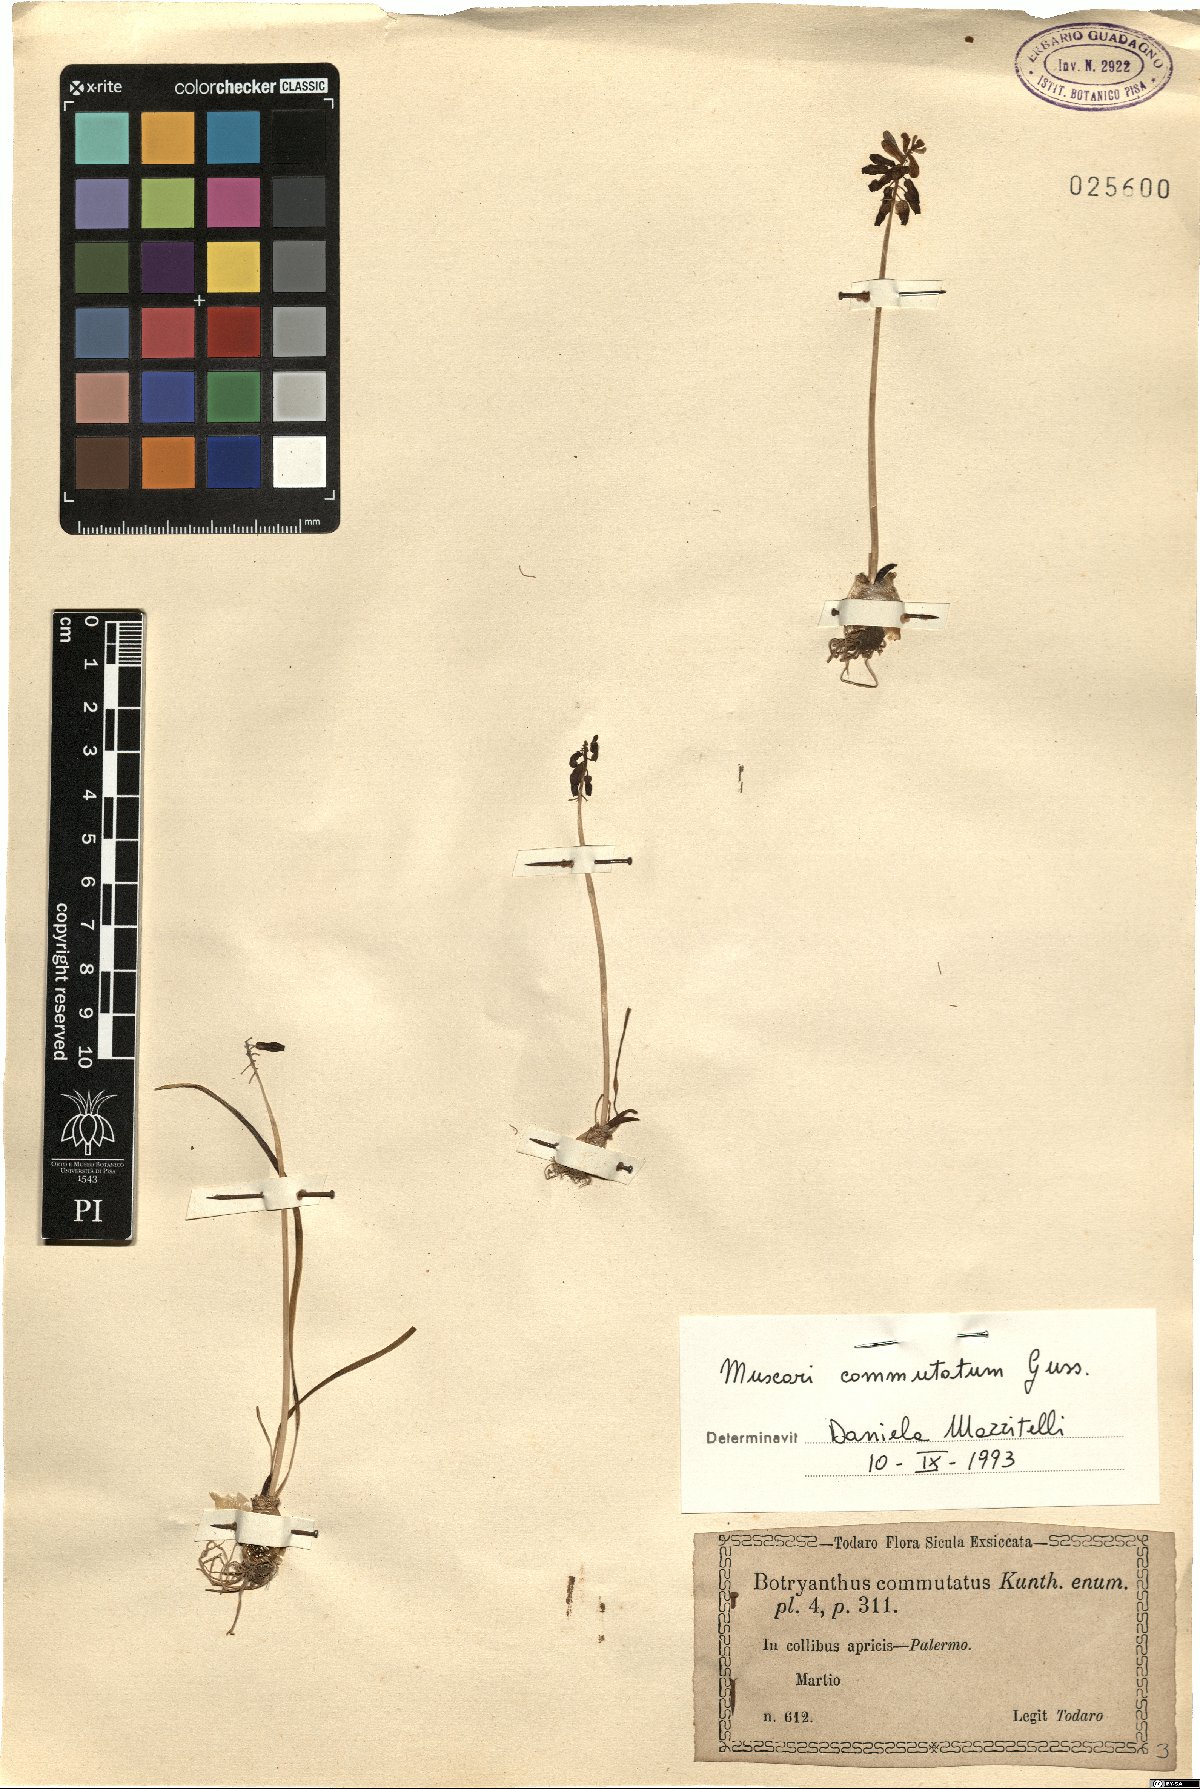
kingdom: Plantae
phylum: Tracheophyta
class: Liliopsida
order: Asparagales
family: Asparagaceae
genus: Muscari
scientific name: Muscari commutatum
